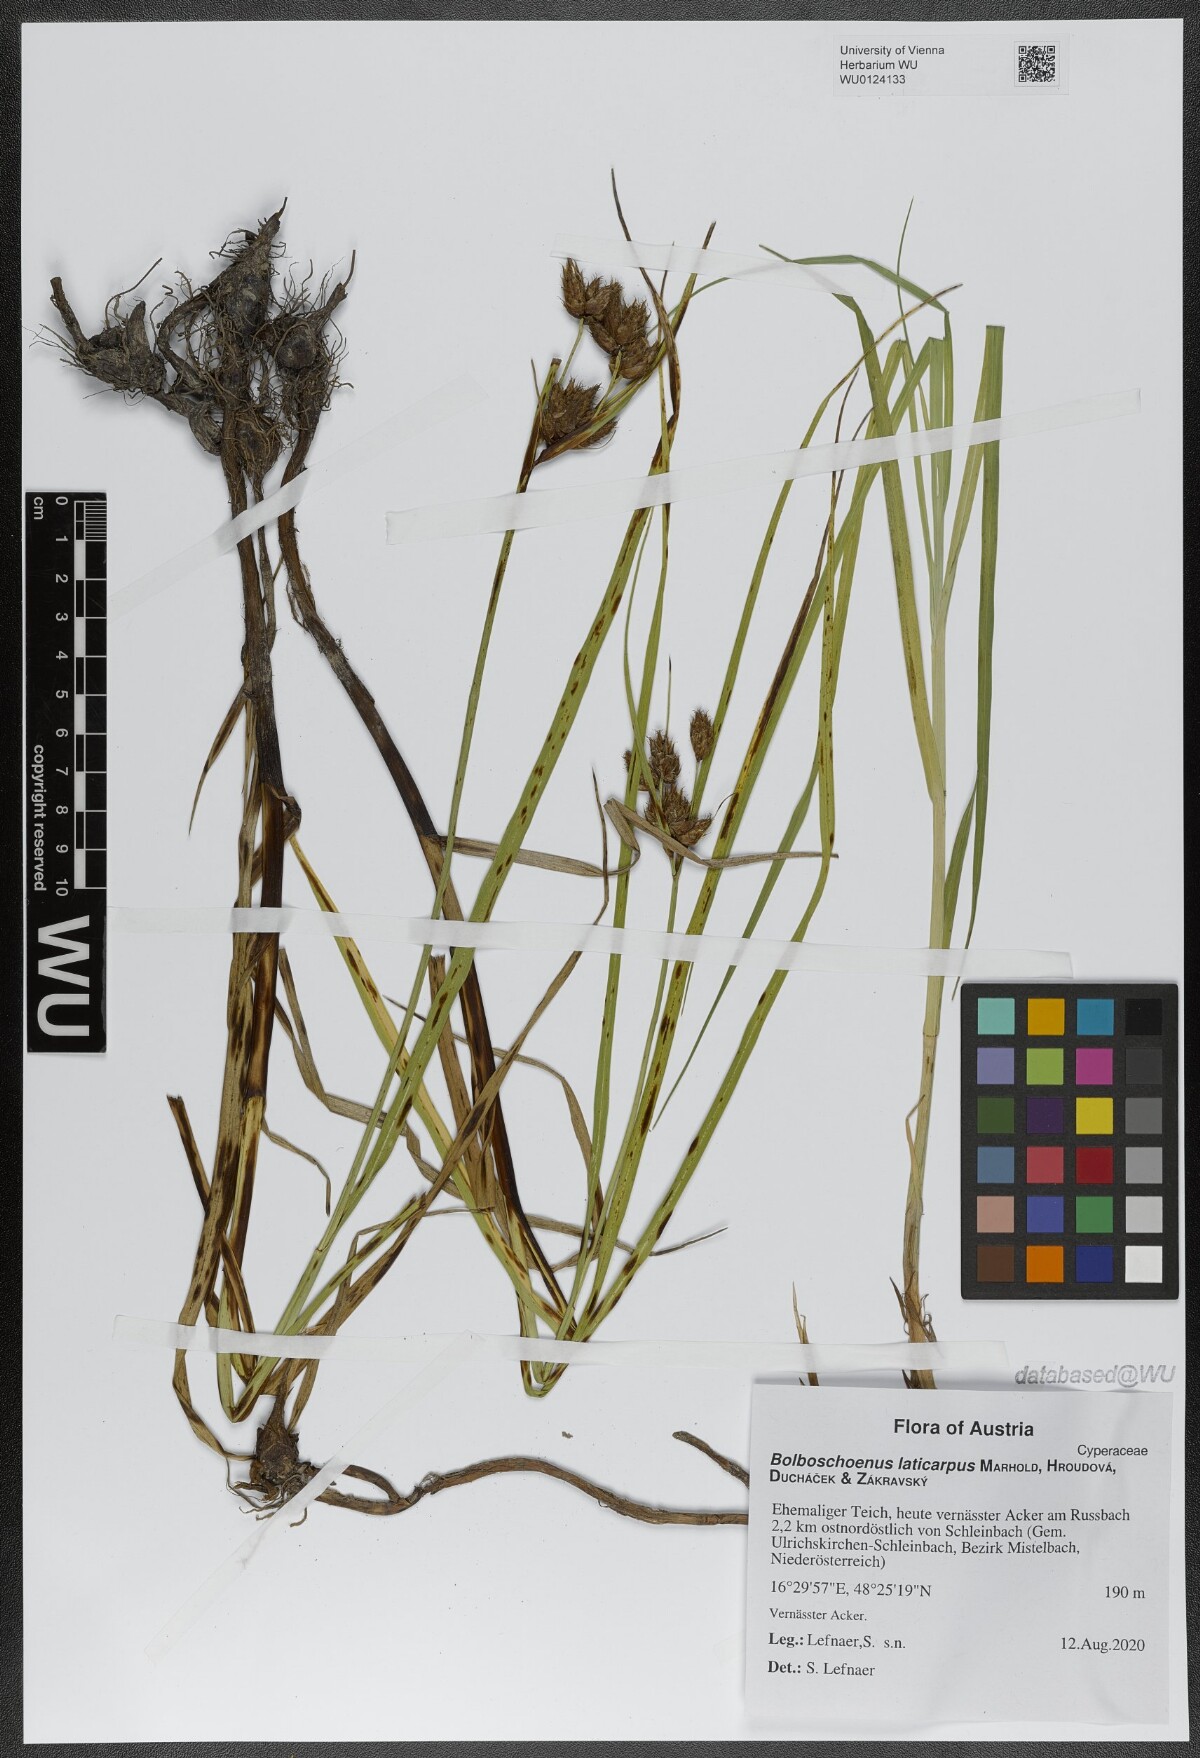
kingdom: Plantae
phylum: Tracheophyta
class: Liliopsida
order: Poales
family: Cyperaceae
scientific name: Cyperaceae
